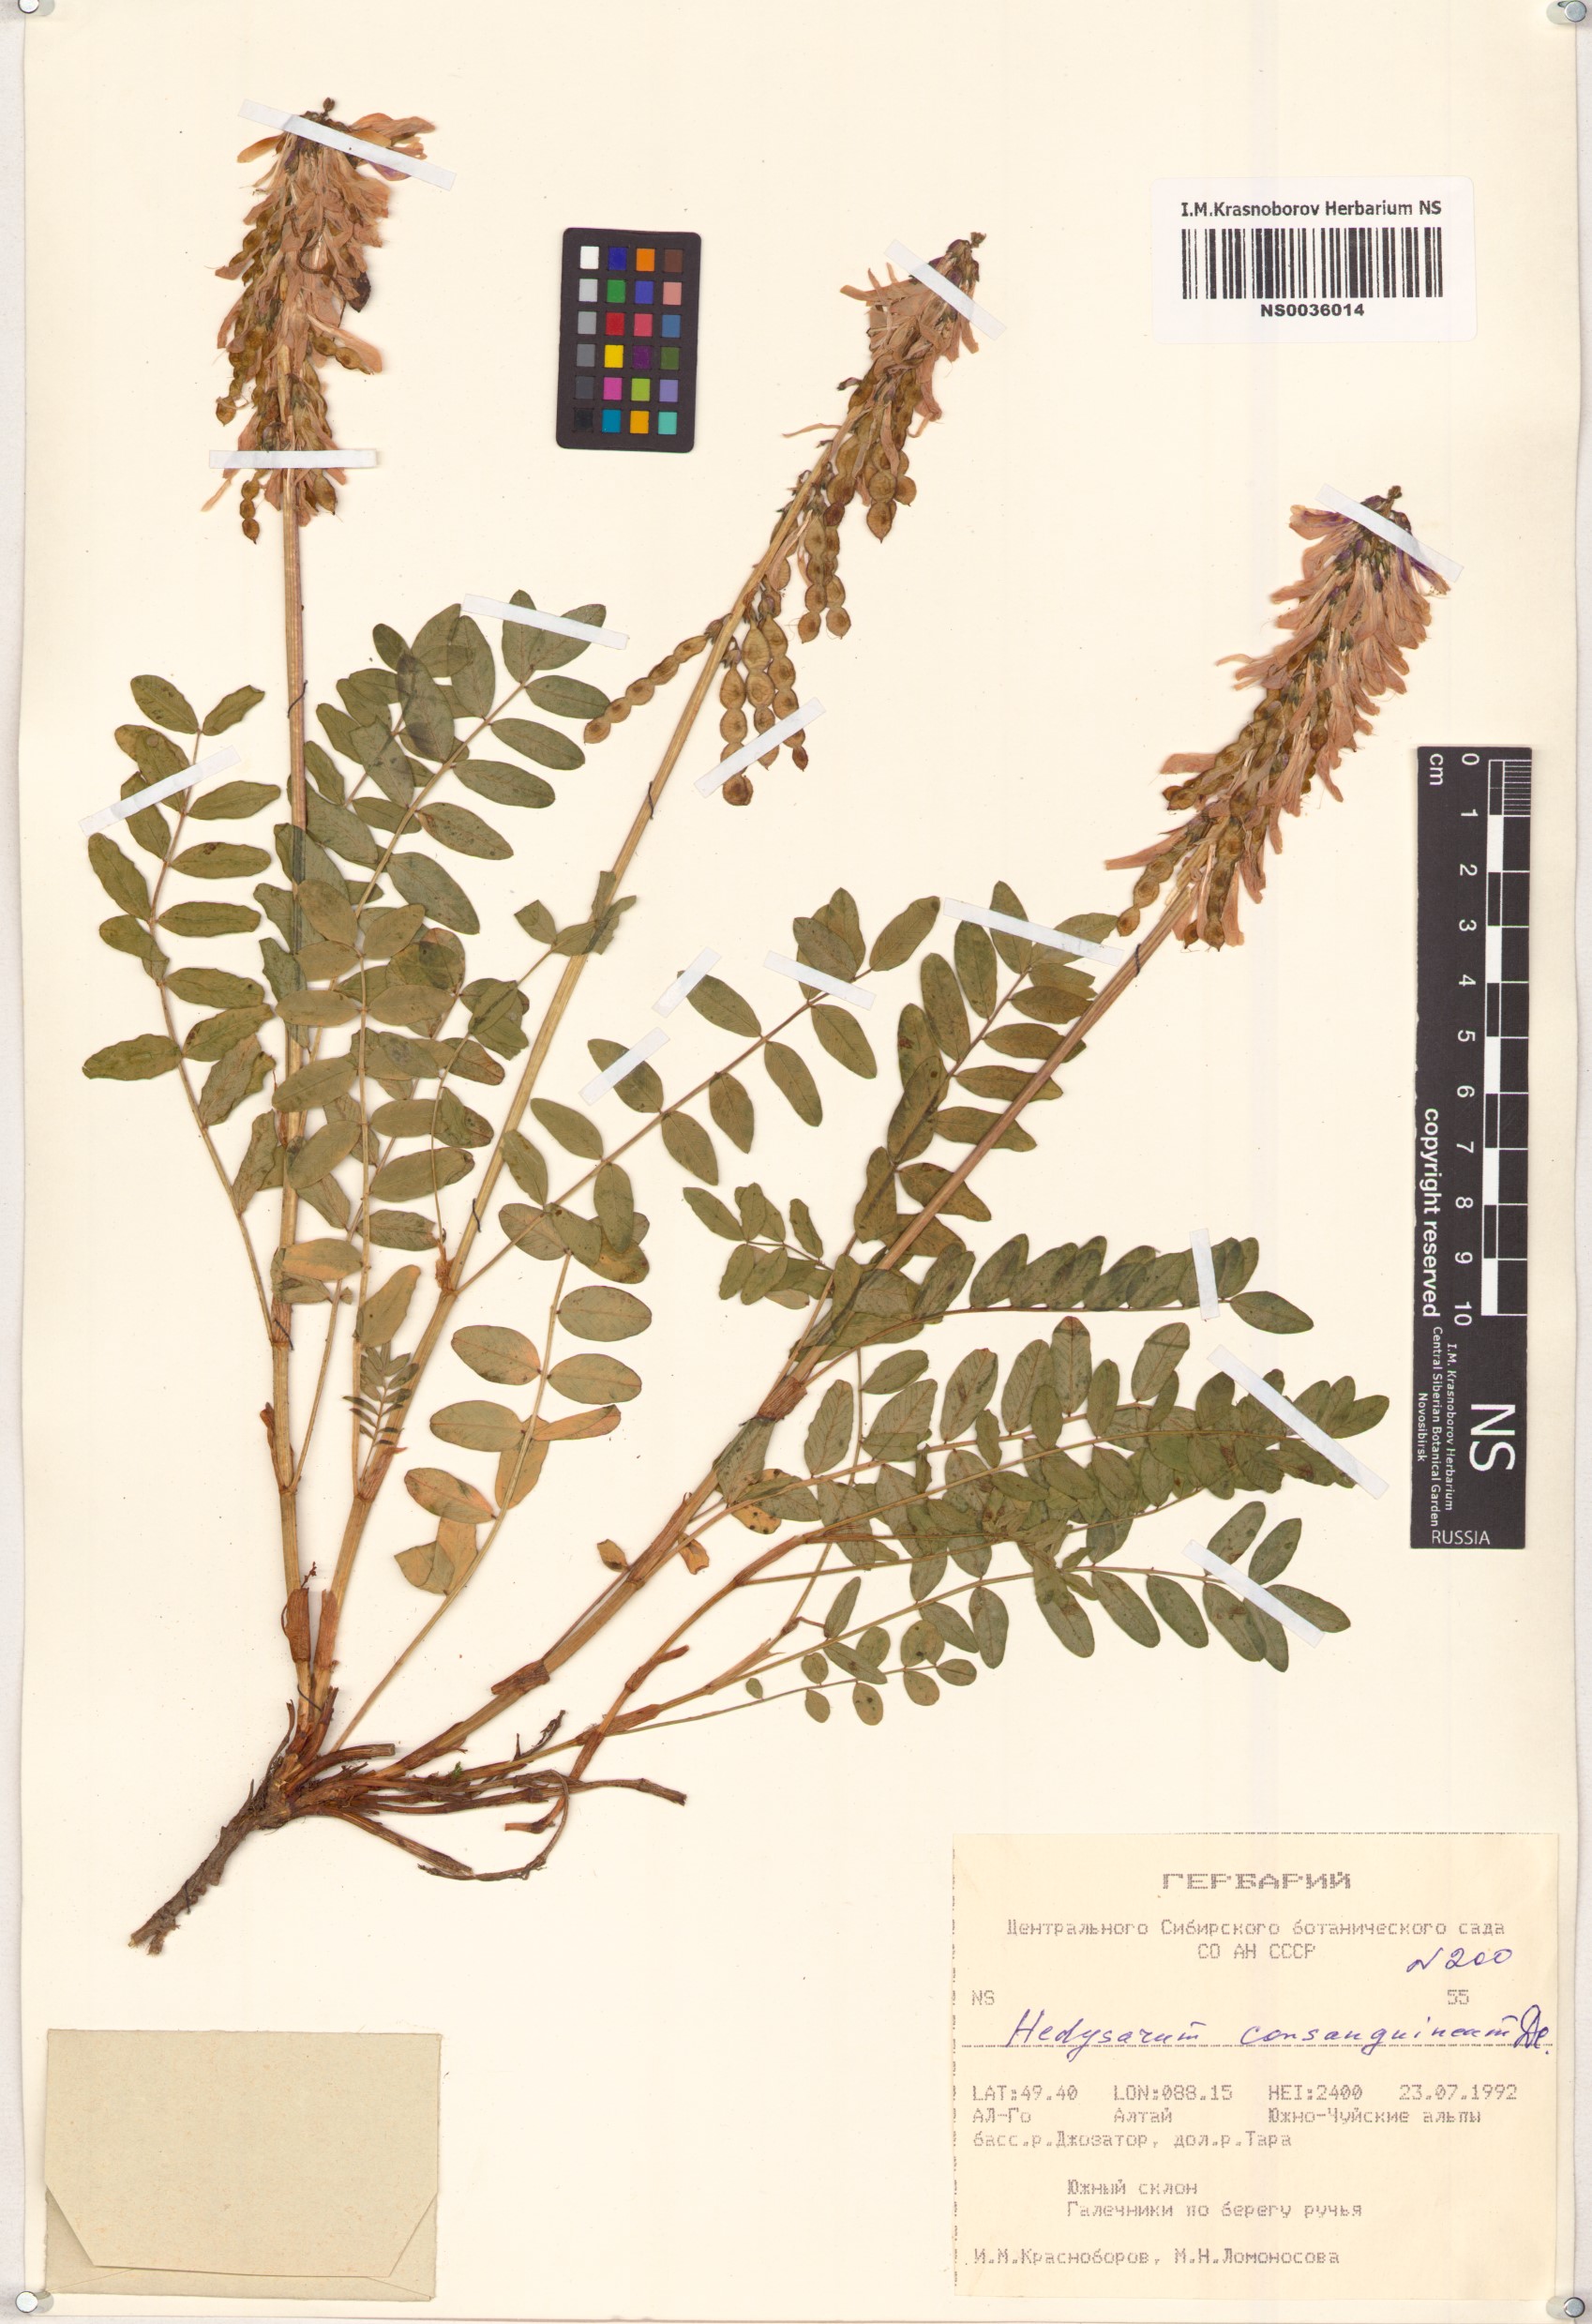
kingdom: Plantae
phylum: Tracheophyta
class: Magnoliopsida
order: Fabales
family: Fabaceae
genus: Hedysarum
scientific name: Hedysarum consanguineum
